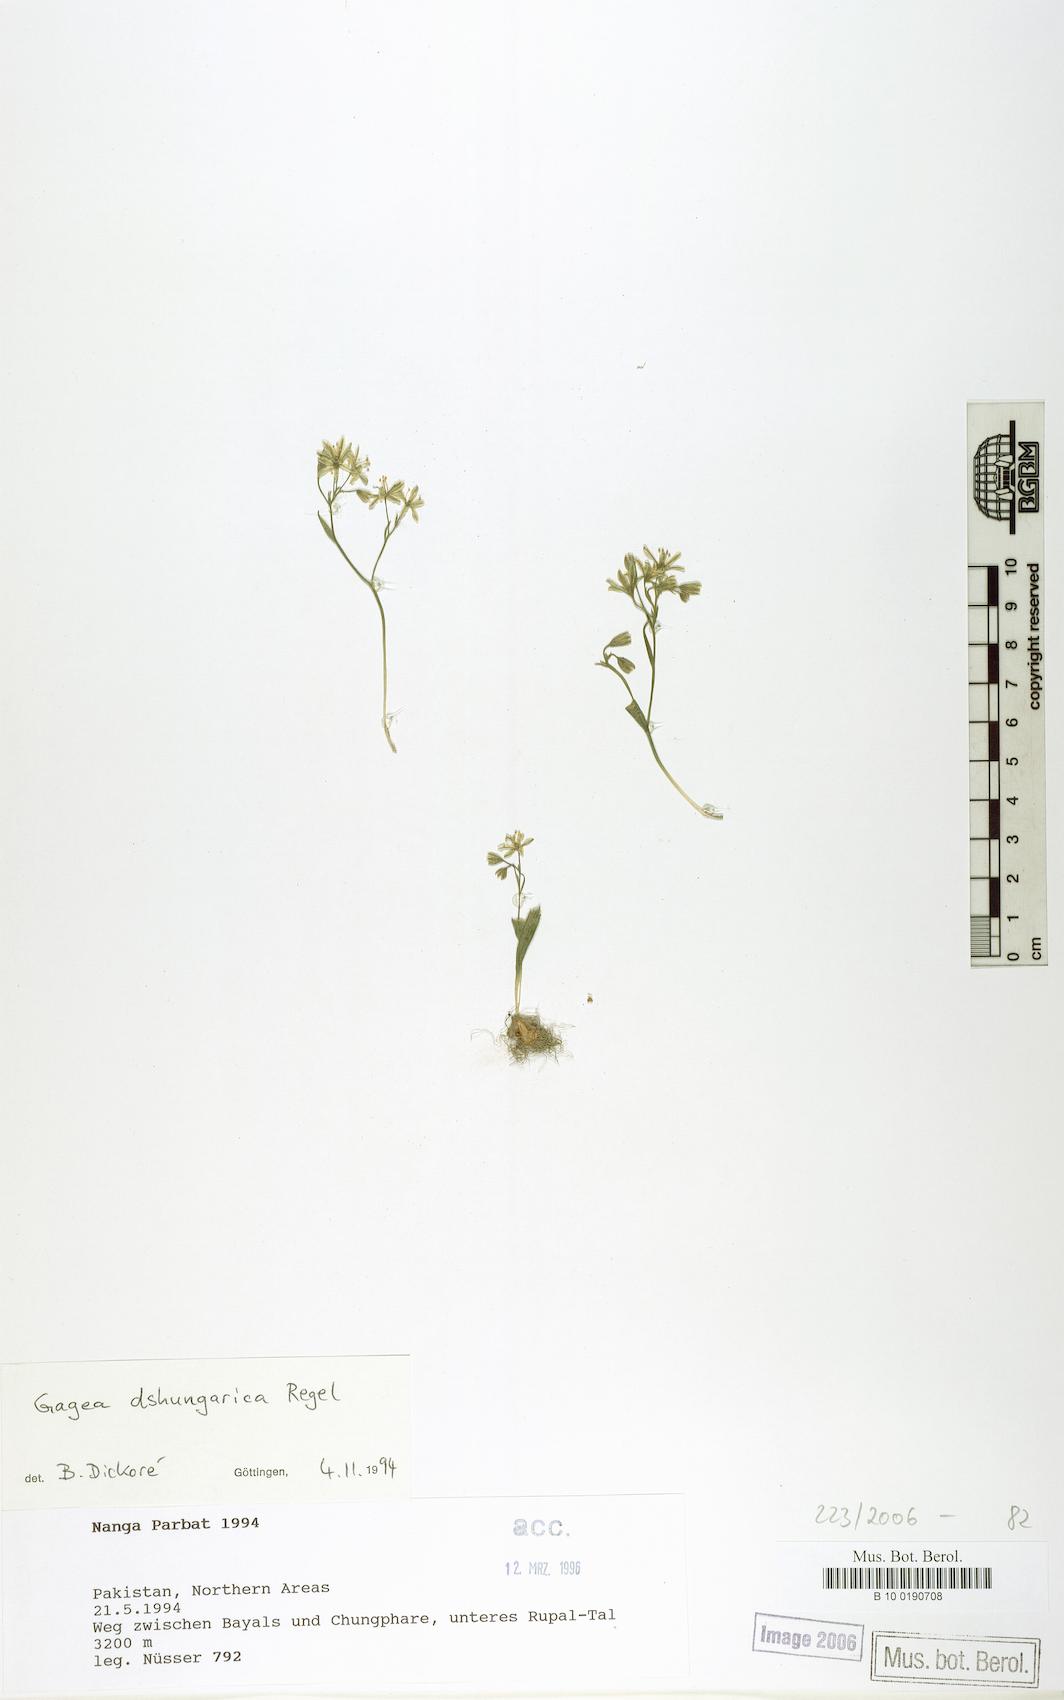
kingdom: Plantae
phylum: Tracheophyta
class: Liliopsida
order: Liliales
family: Liliaceae
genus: Gagea
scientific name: Gagea dschungarica
